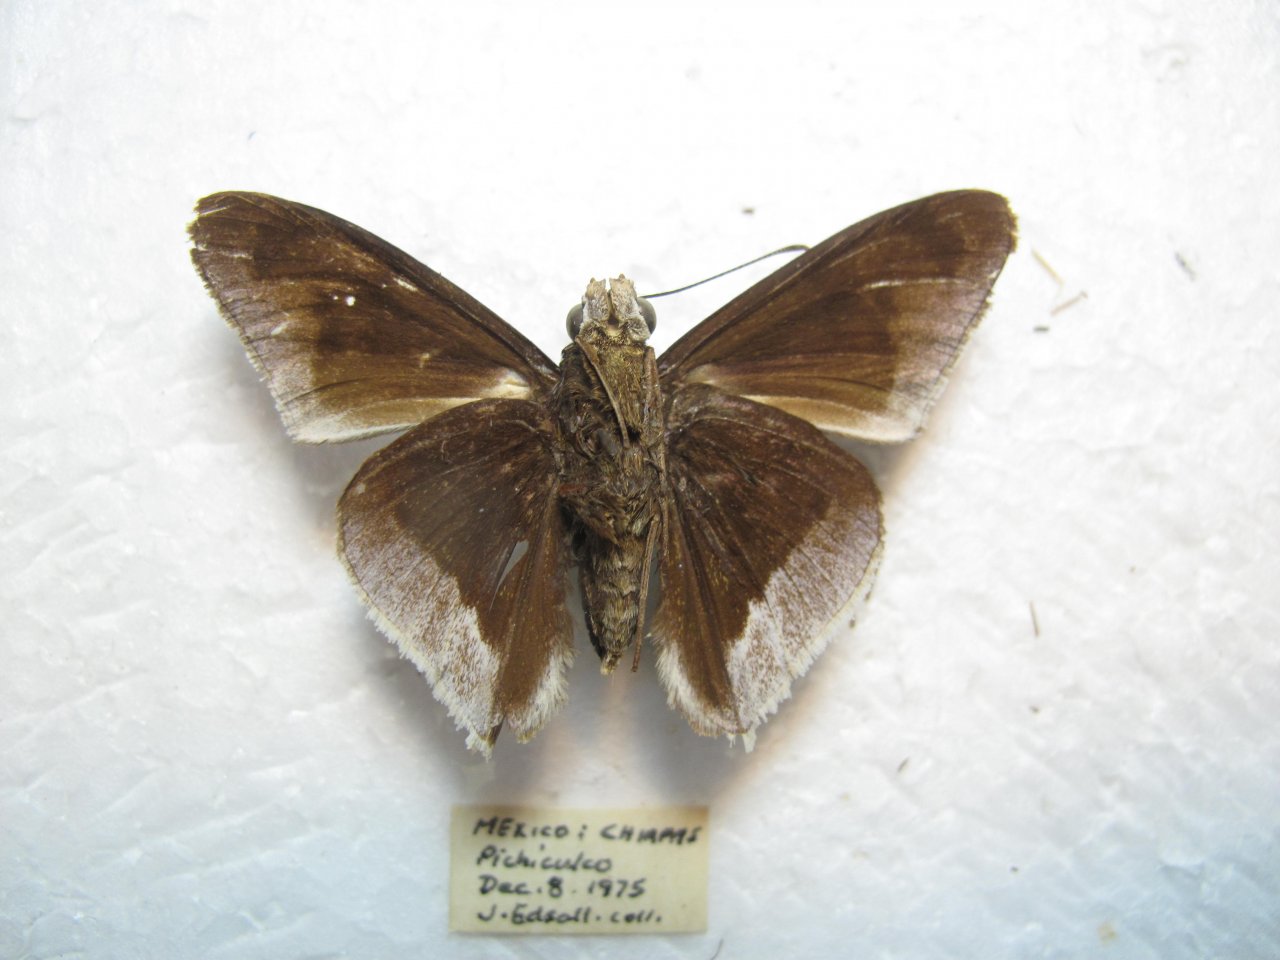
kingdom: Animalia
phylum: Arthropoda
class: Insecta
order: Lepidoptera
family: Hesperiidae
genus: Astraptes
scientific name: Astraptes alardus
